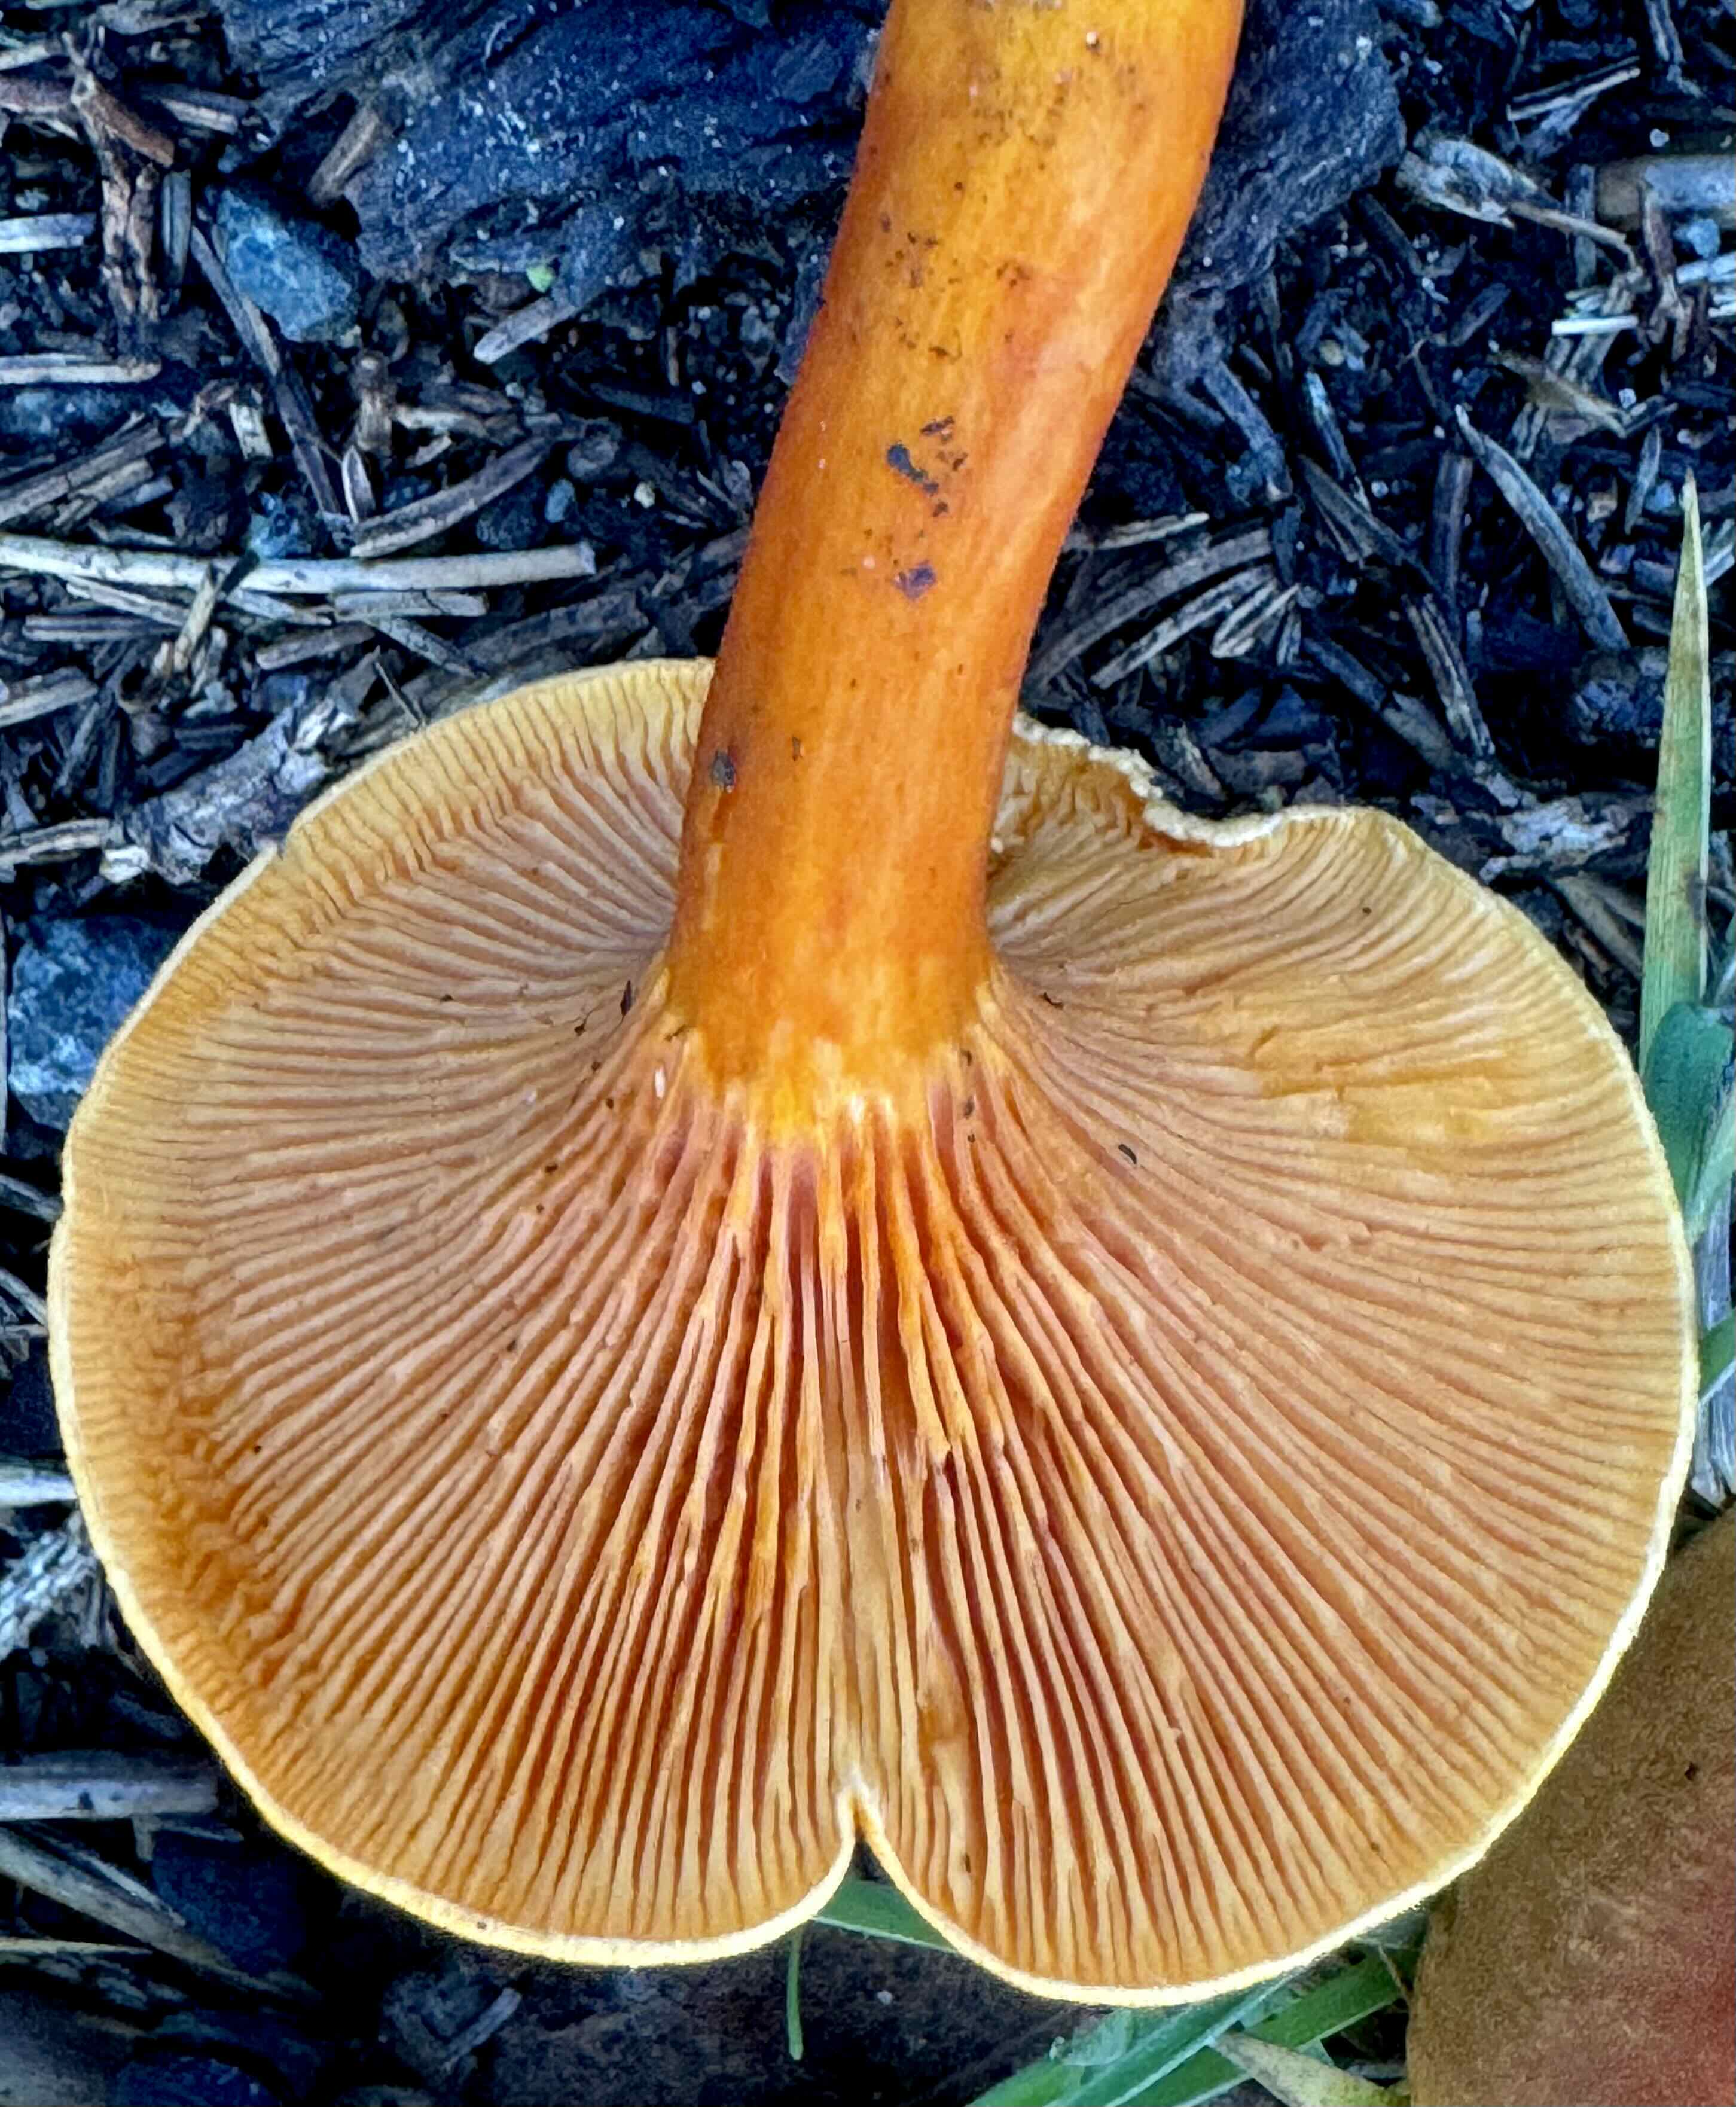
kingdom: Fungi
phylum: Basidiomycota
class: Agaricomycetes
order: Boletales
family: Hygrophoropsidaceae
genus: Hygrophoropsis
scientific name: Hygrophoropsis aurantiaca
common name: almindelig orangekantarel
